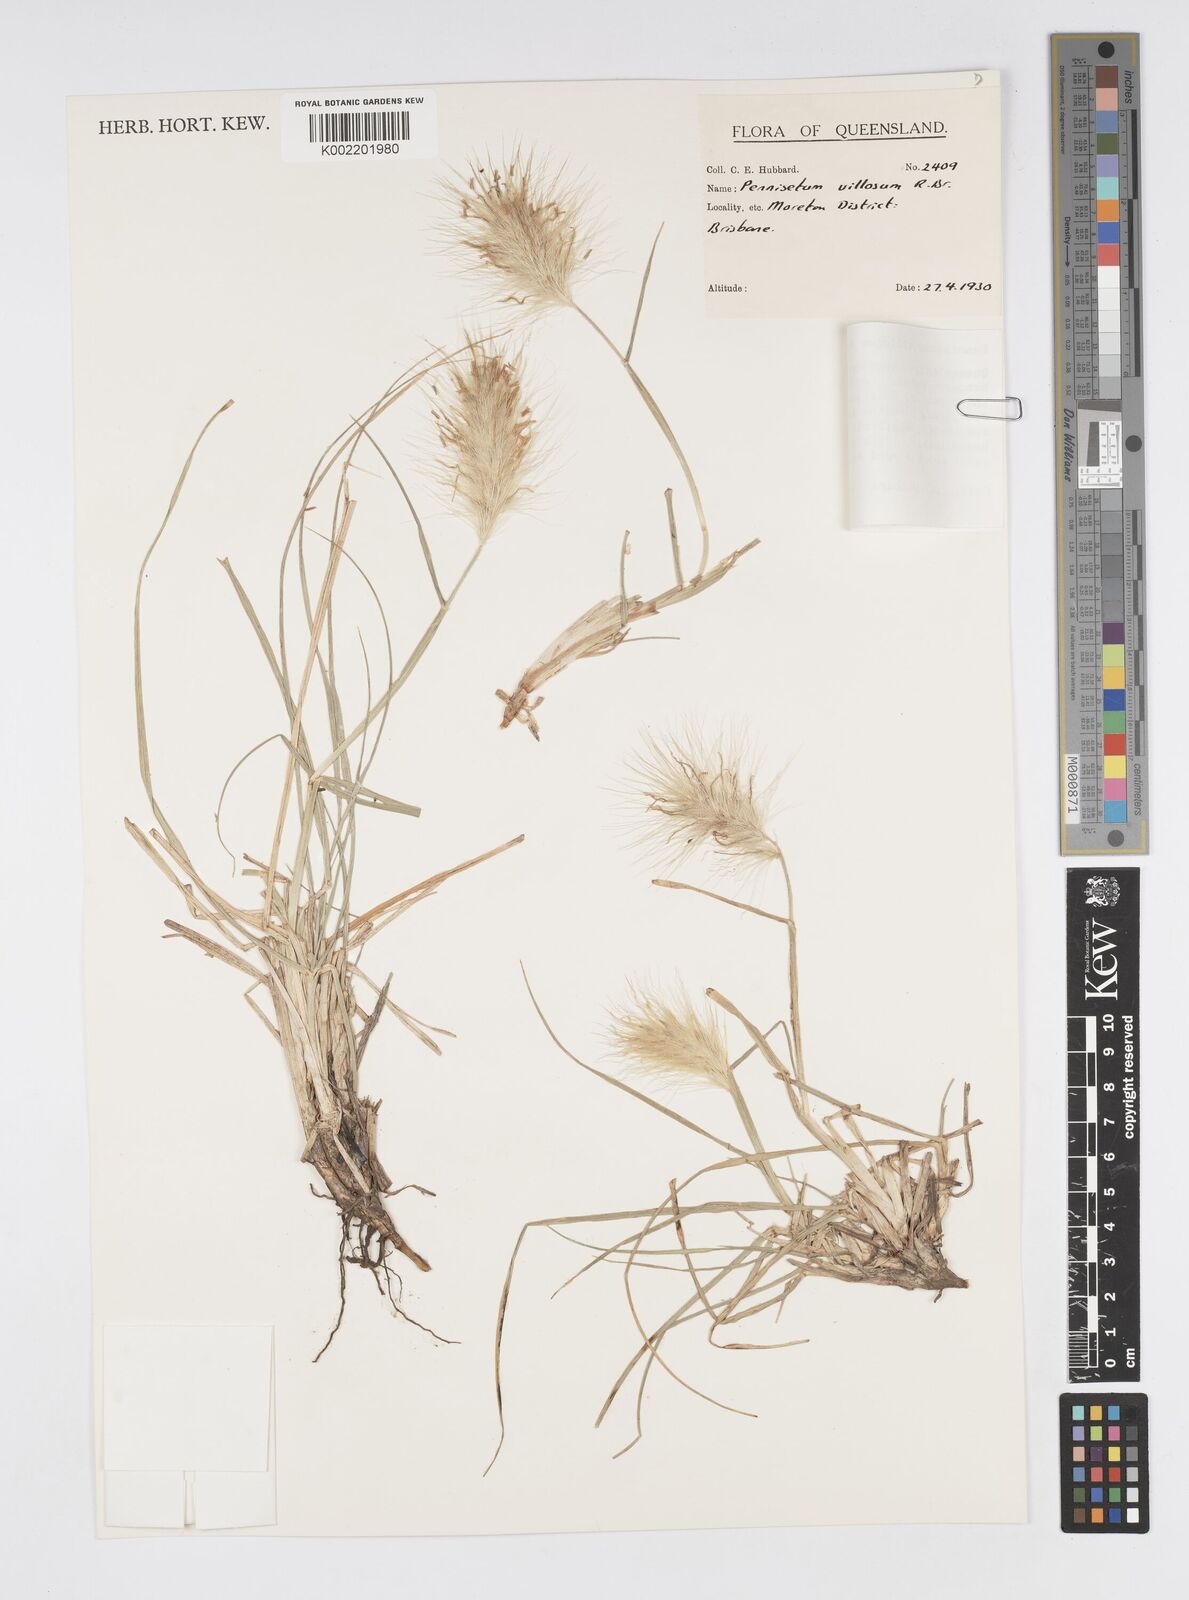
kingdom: Plantae
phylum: Tracheophyta
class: Liliopsida
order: Poales
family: Poaceae
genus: Cenchrus
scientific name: Cenchrus longisetus
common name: Feathertop
